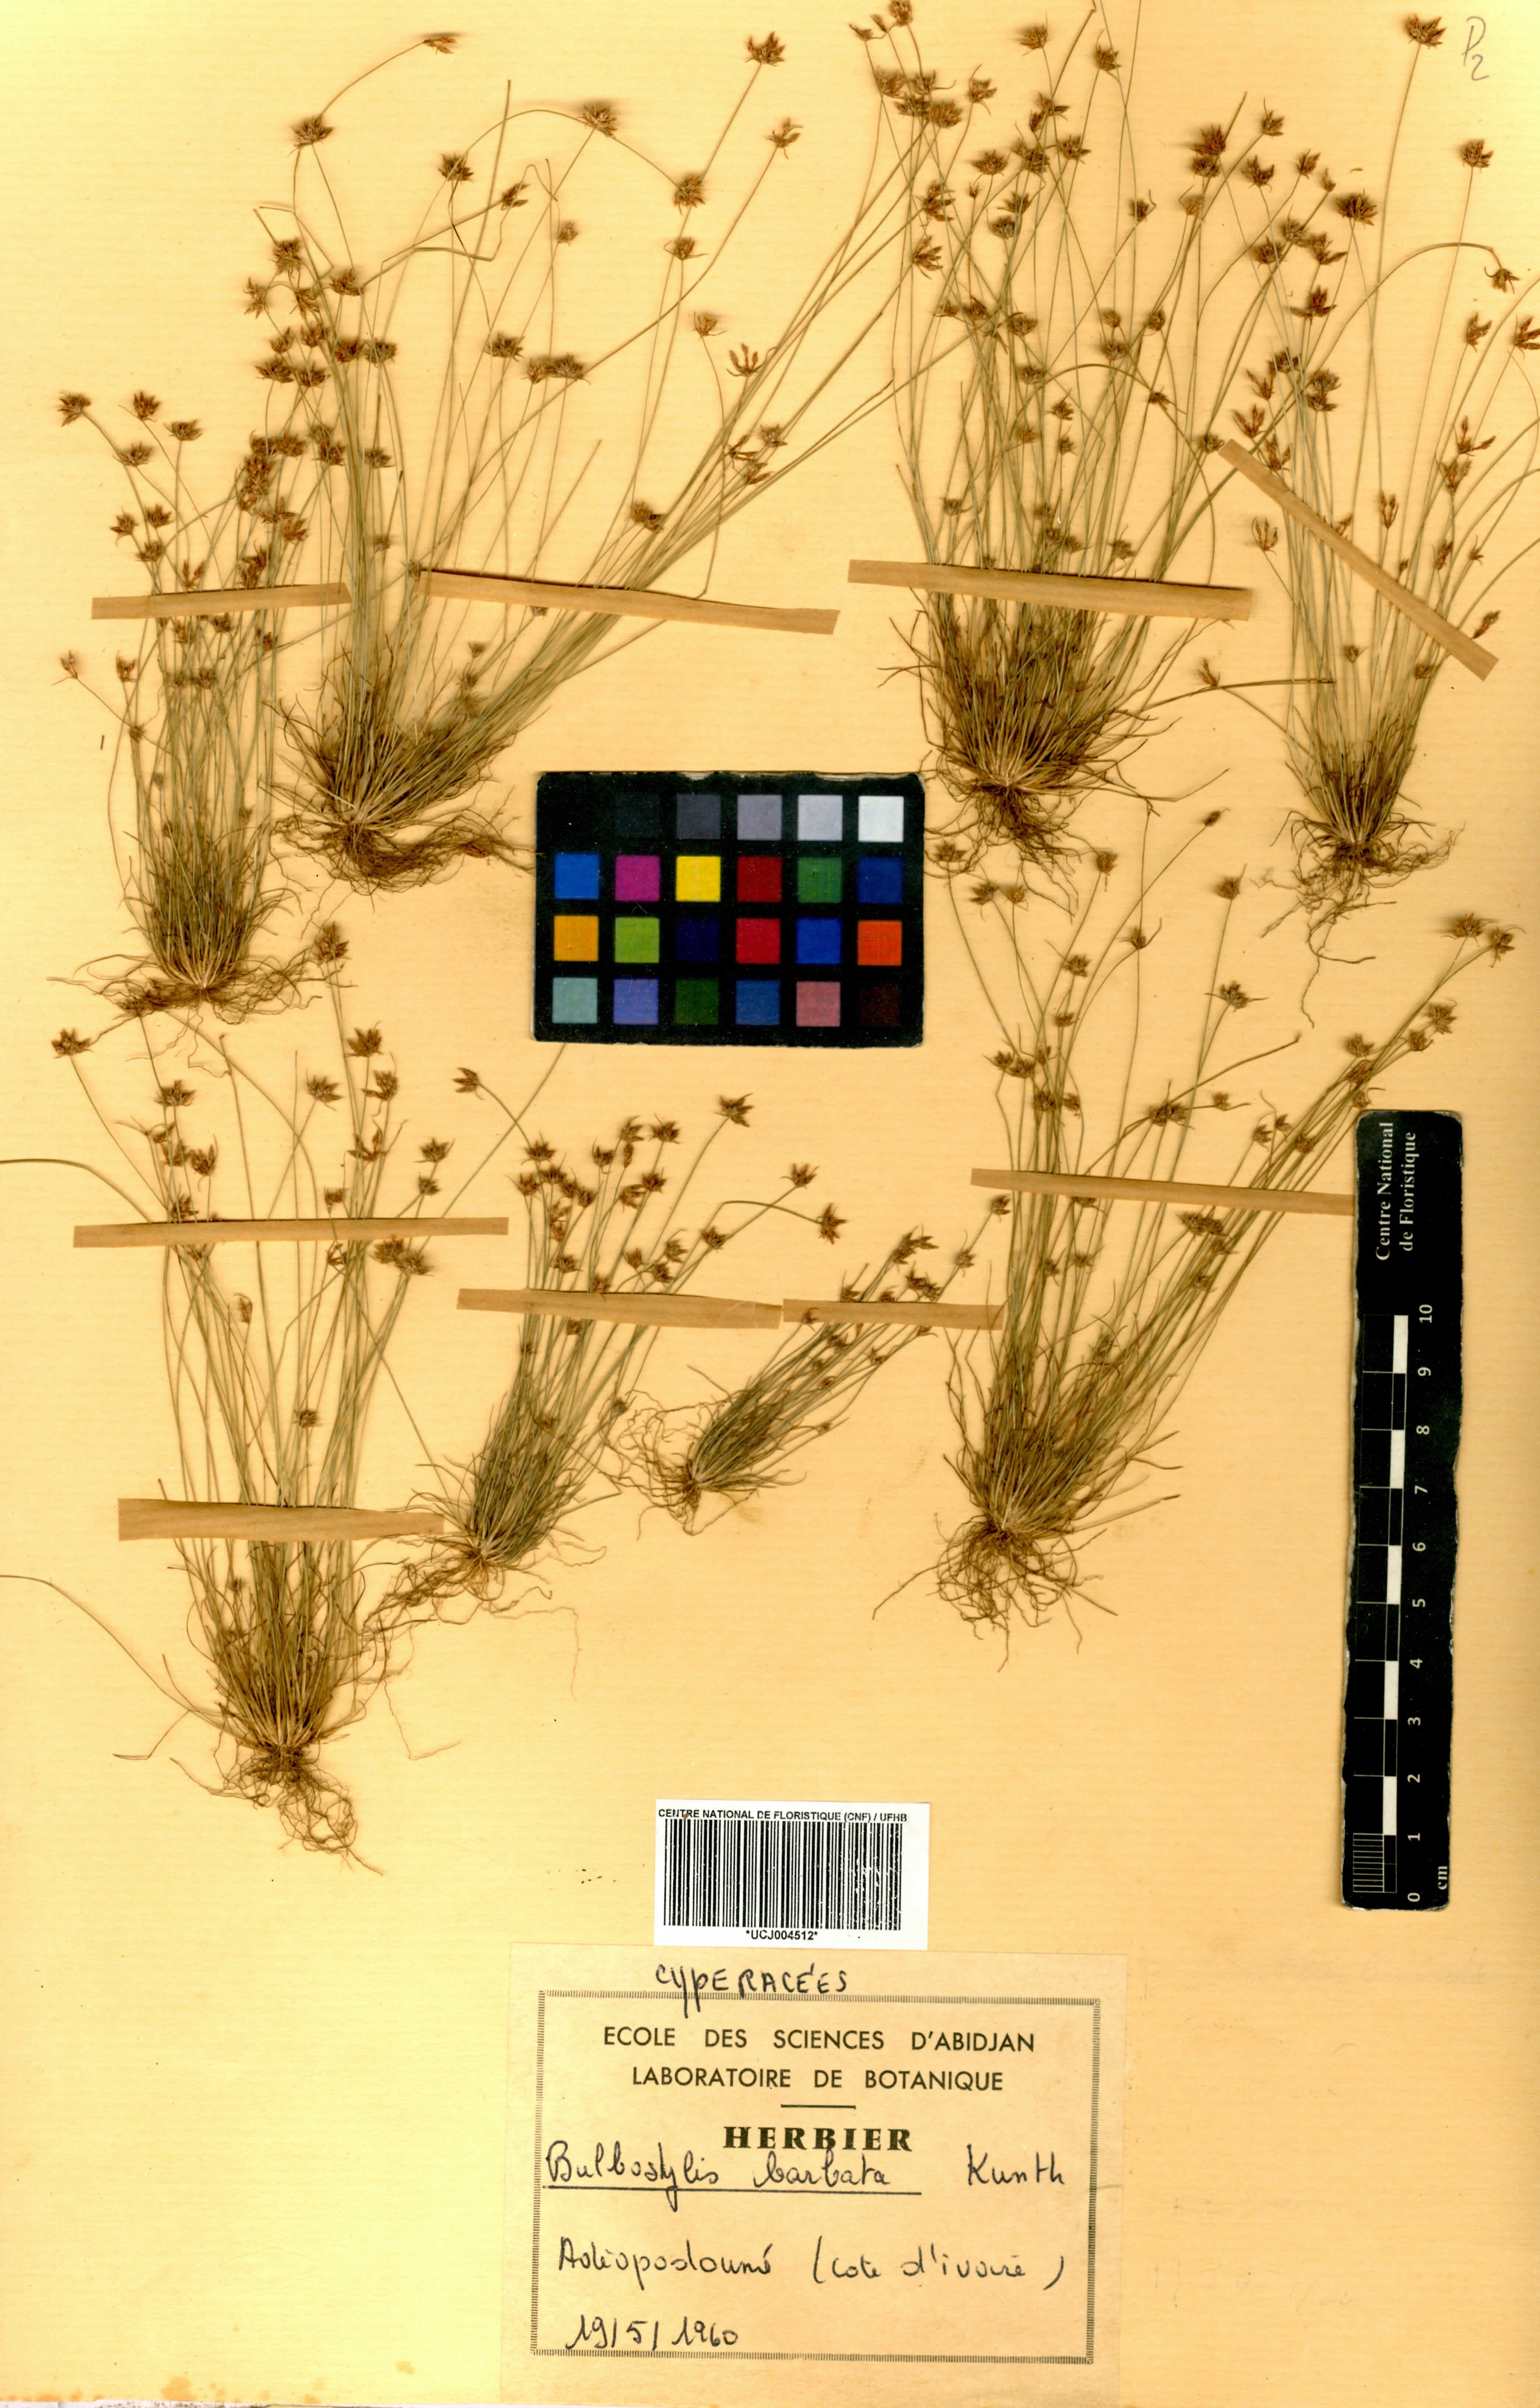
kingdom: Plantae
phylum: Tracheophyta
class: Liliopsida
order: Poales
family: Cyperaceae
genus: Bulbostylis
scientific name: Bulbostylis barbata
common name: Watergrass
